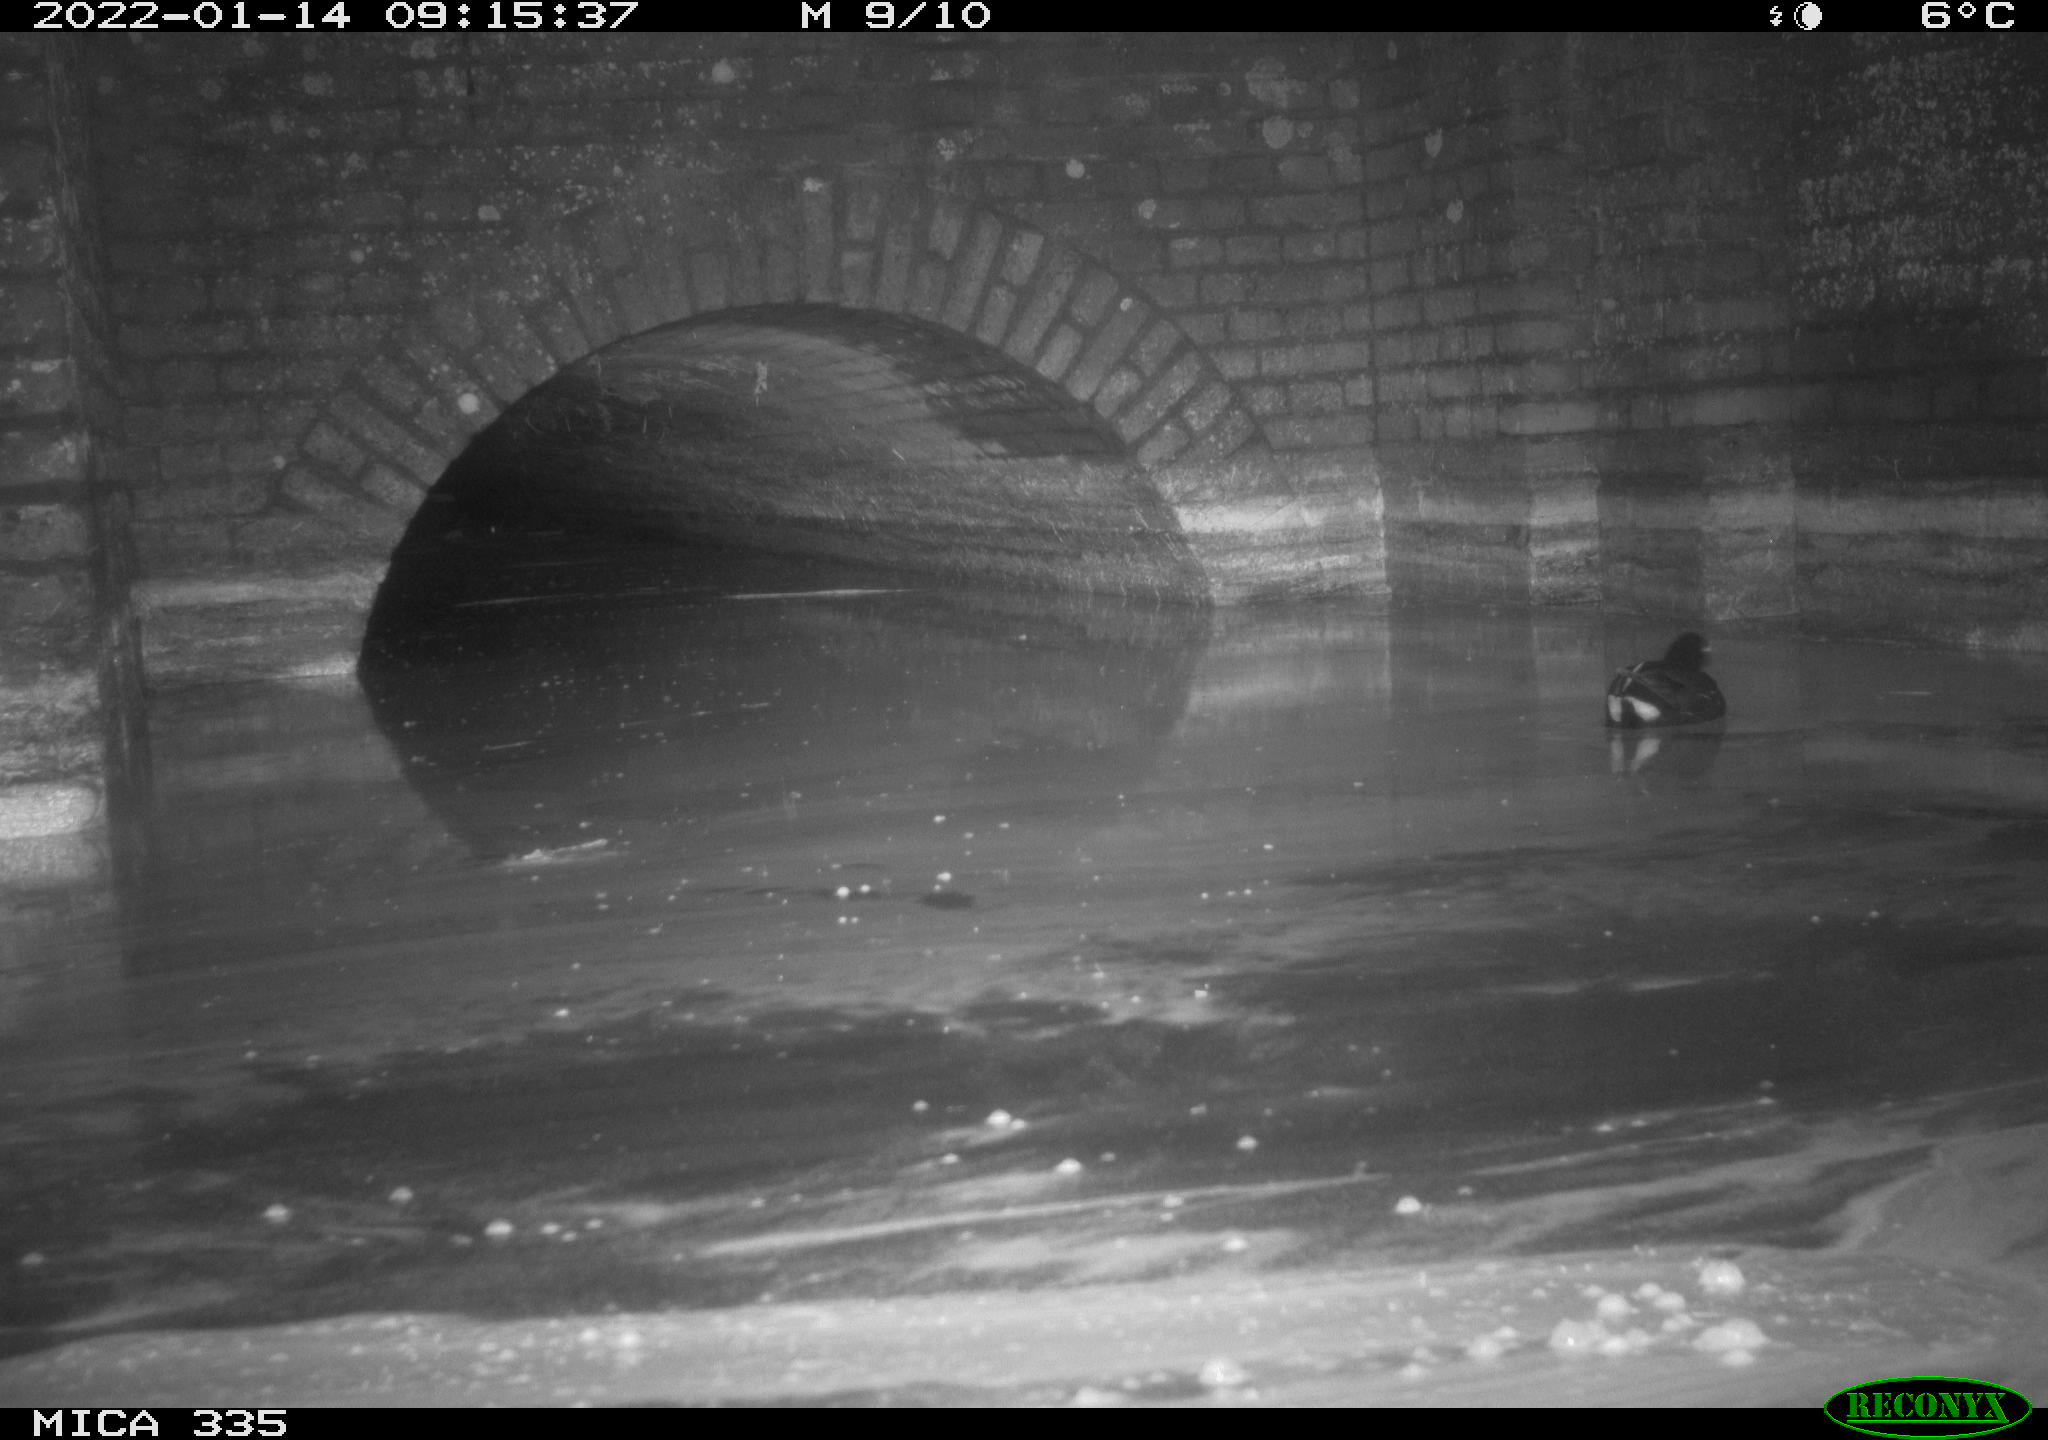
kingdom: Animalia
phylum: Chordata
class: Aves
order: Gruiformes
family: Rallidae
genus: Gallinula
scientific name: Gallinula chloropus
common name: Common moorhen
